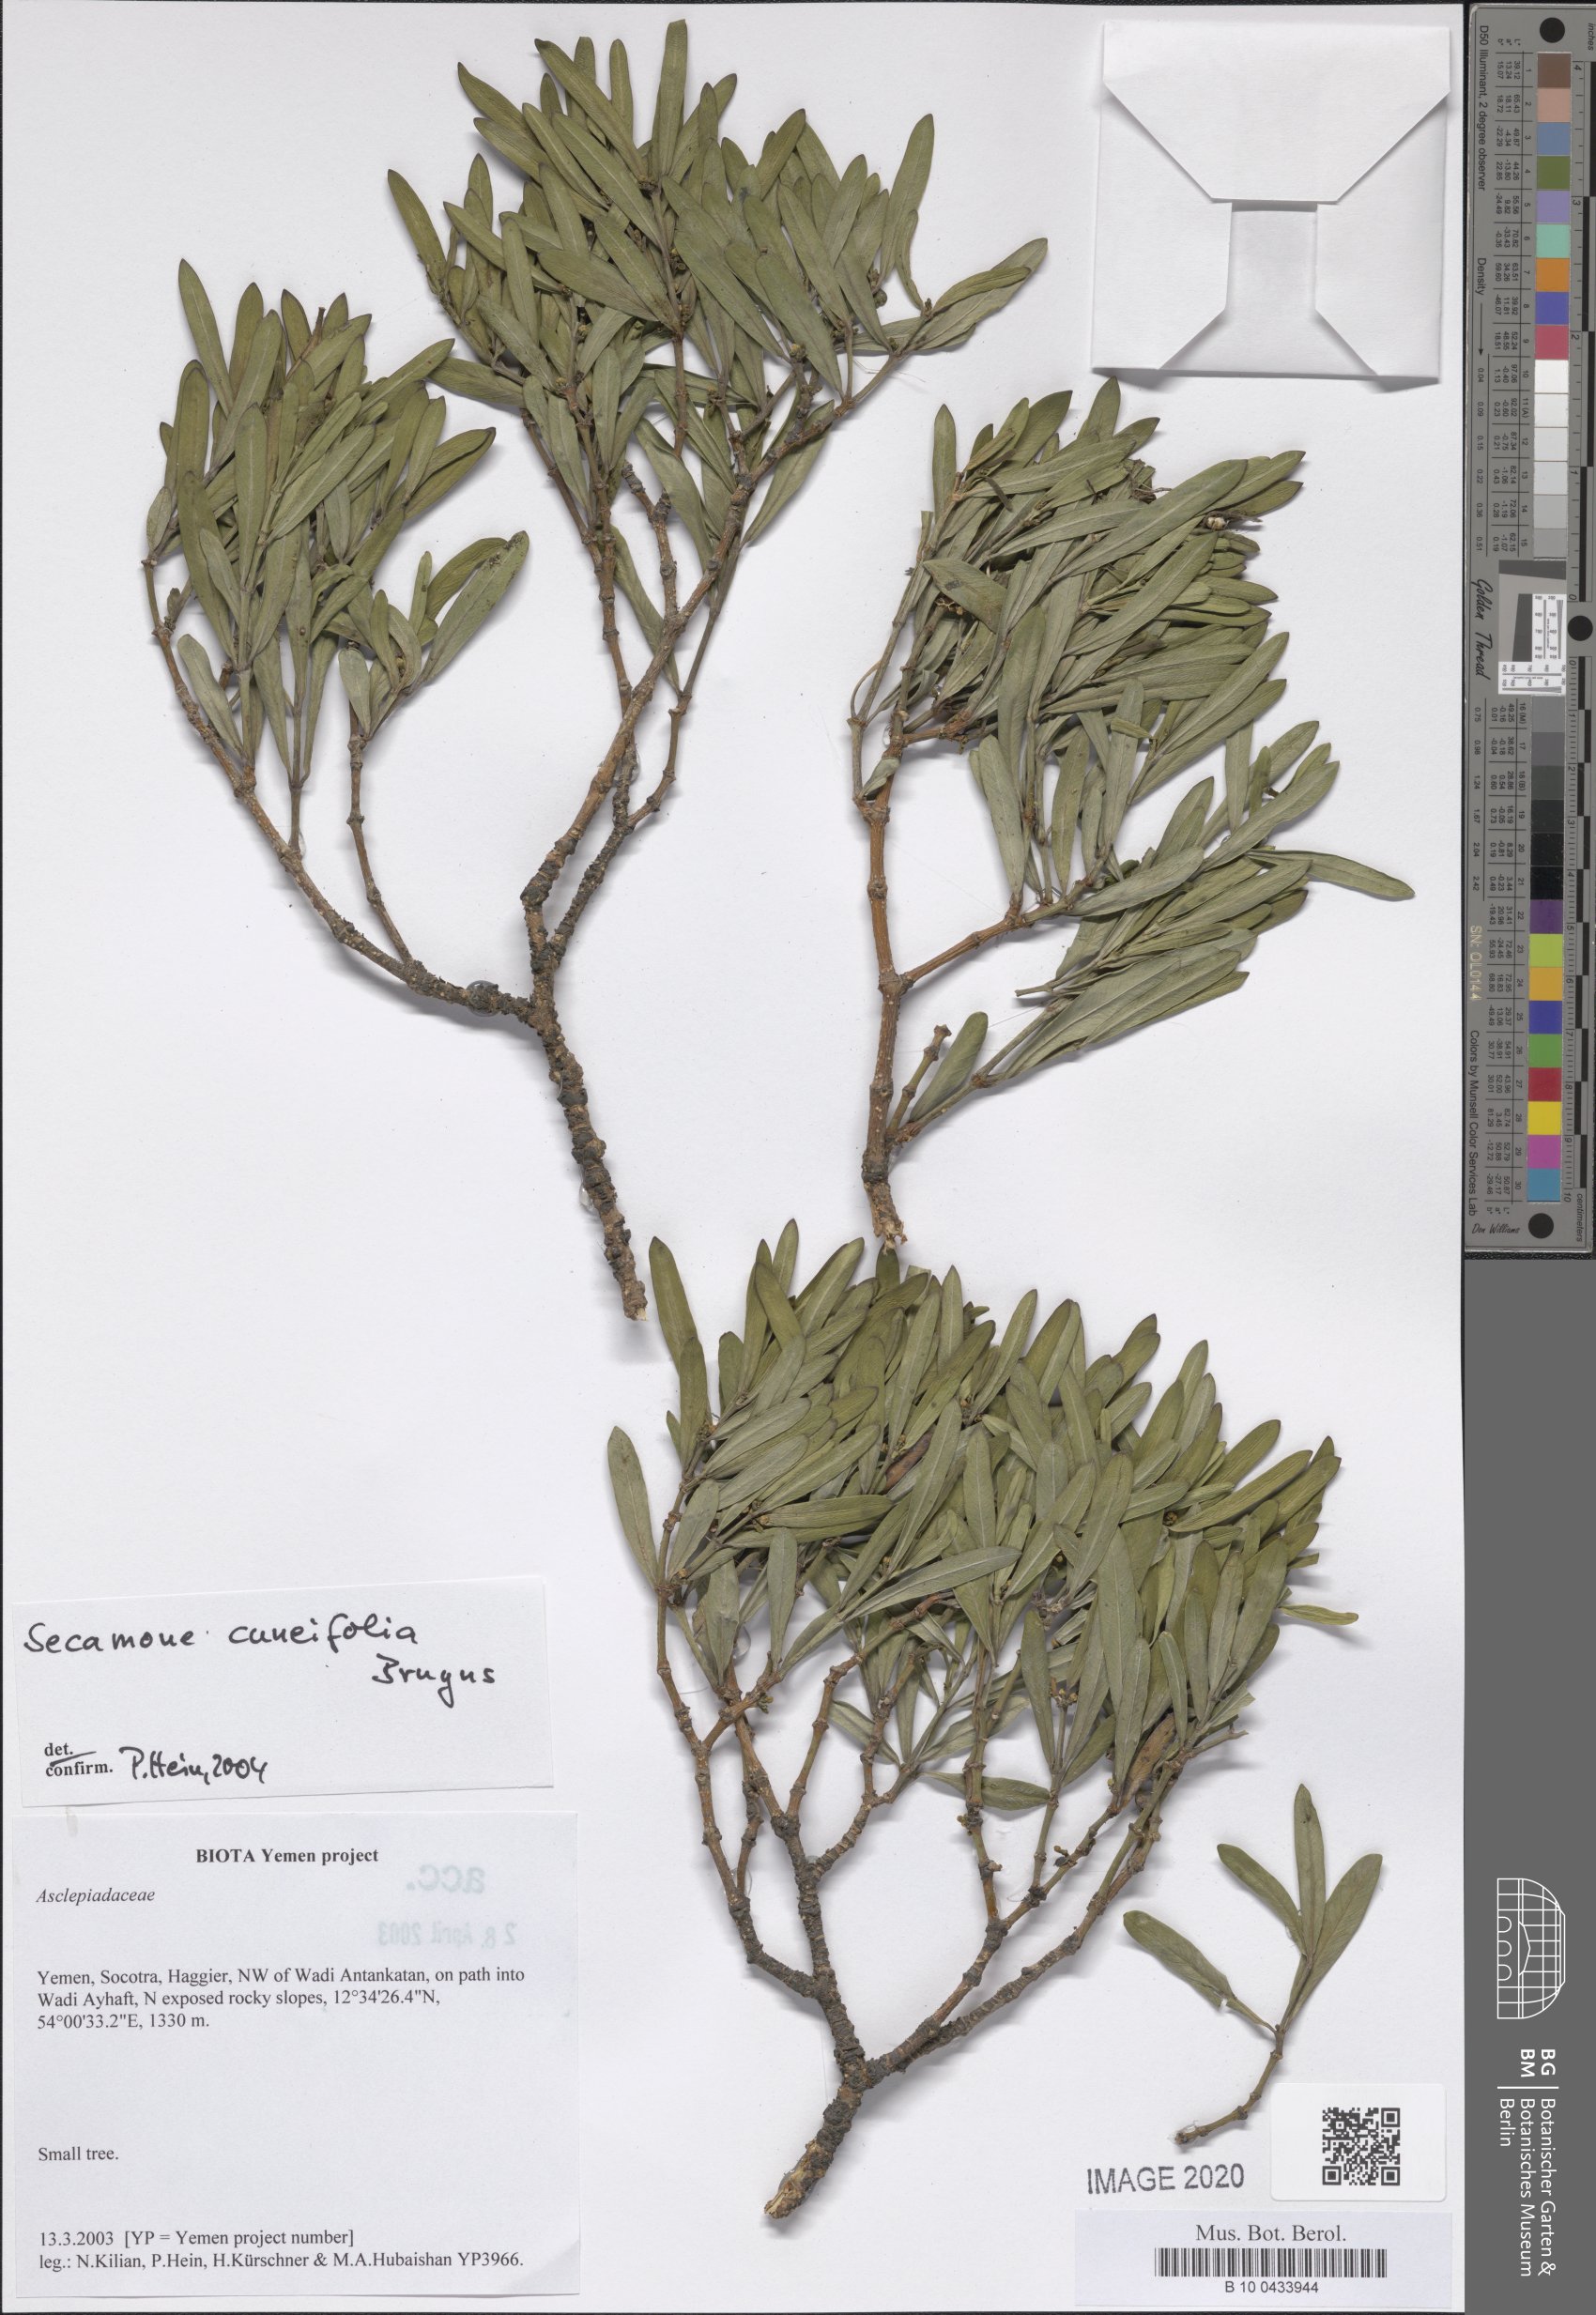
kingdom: Plantae
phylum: Tracheophyta
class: Magnoliopsida
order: Gentianales
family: Apocynaceae
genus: Secamone
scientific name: Secamone cuneifolia
